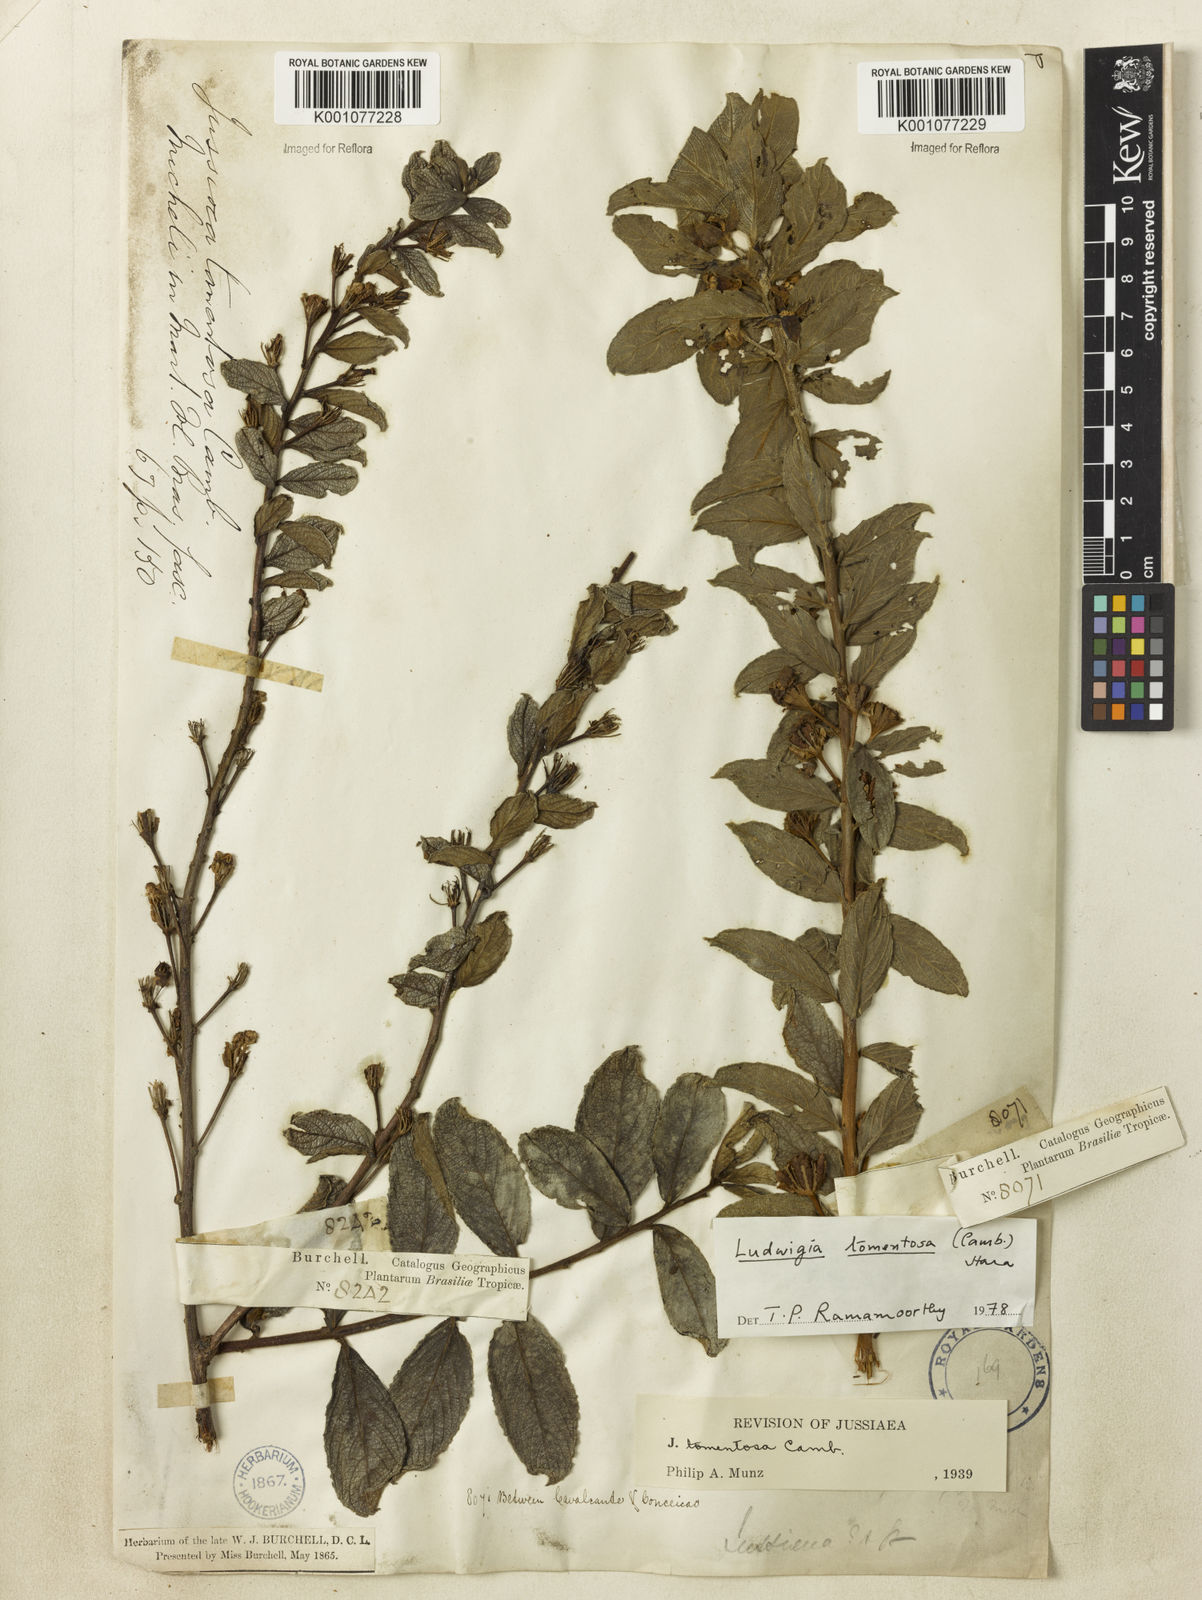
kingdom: Plantae
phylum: Tracheophyta
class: Magnoliopsida
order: Myrtales
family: Onagraceae
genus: Ludwigia
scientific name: Ludwigia tomentosa
